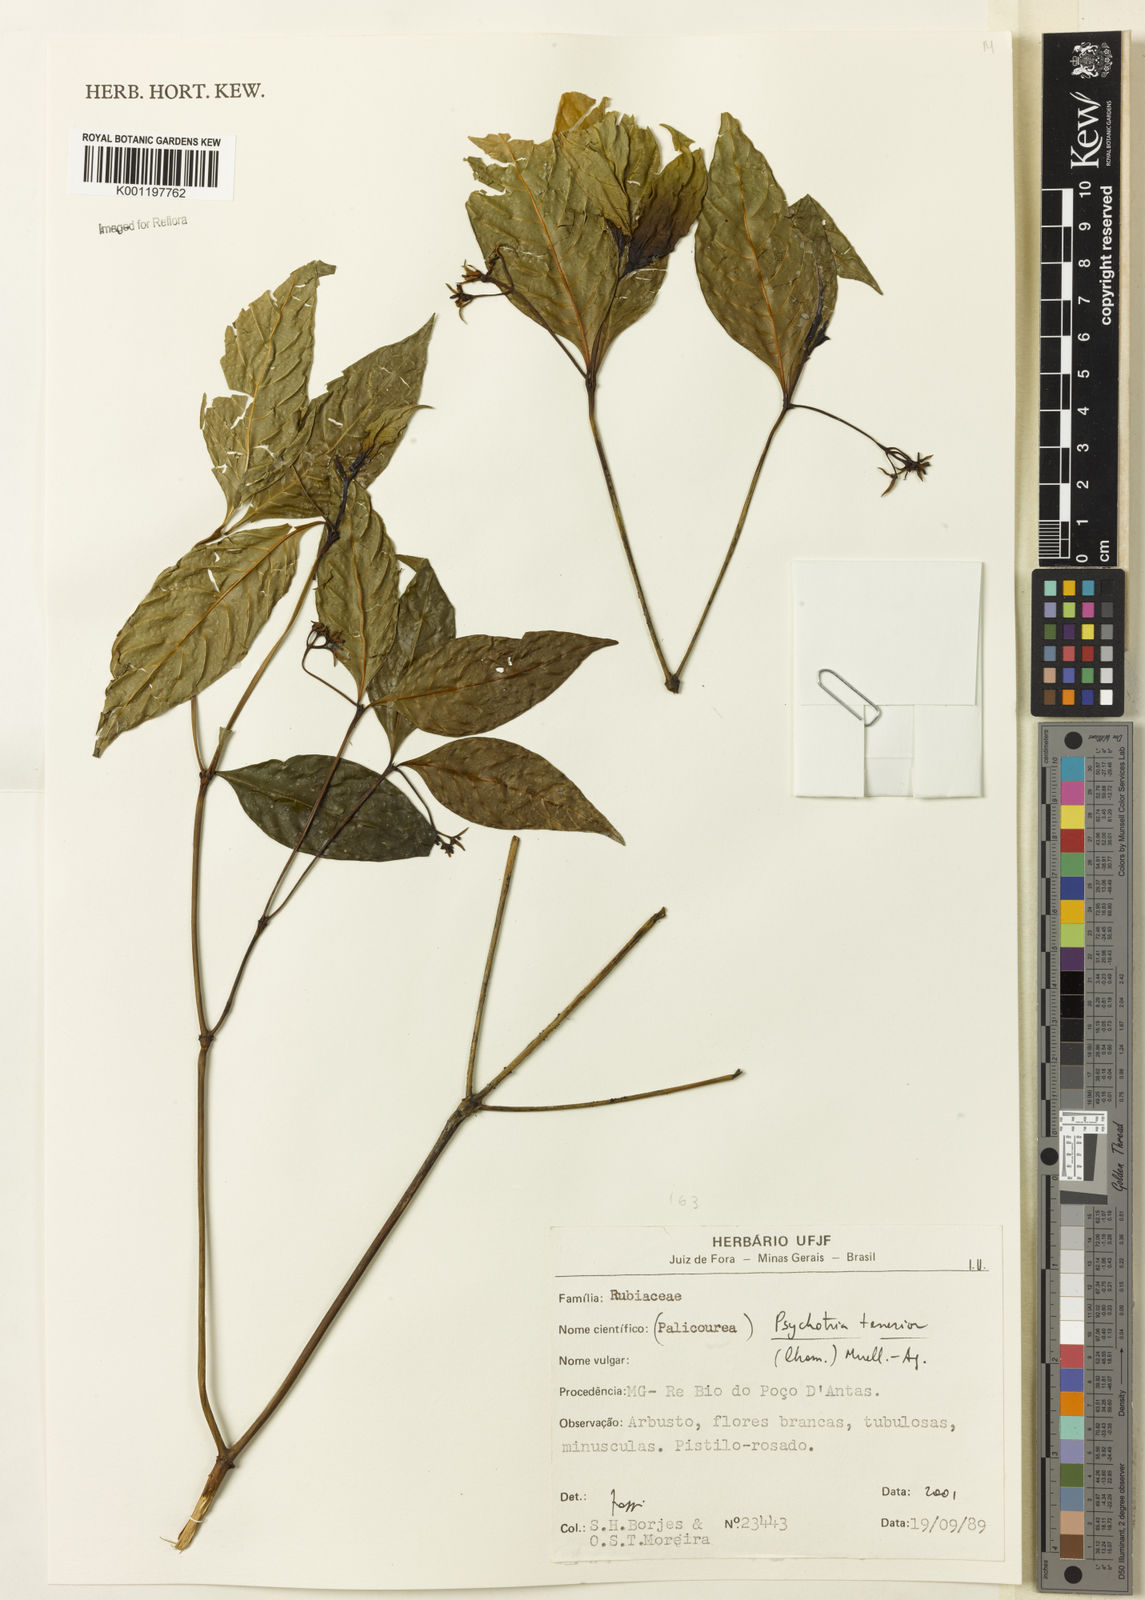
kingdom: Plantae
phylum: Tracheophyta
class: Magnoliopsida
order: Gentianales
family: Rubiaceae
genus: Psychotria
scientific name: Psychotria
